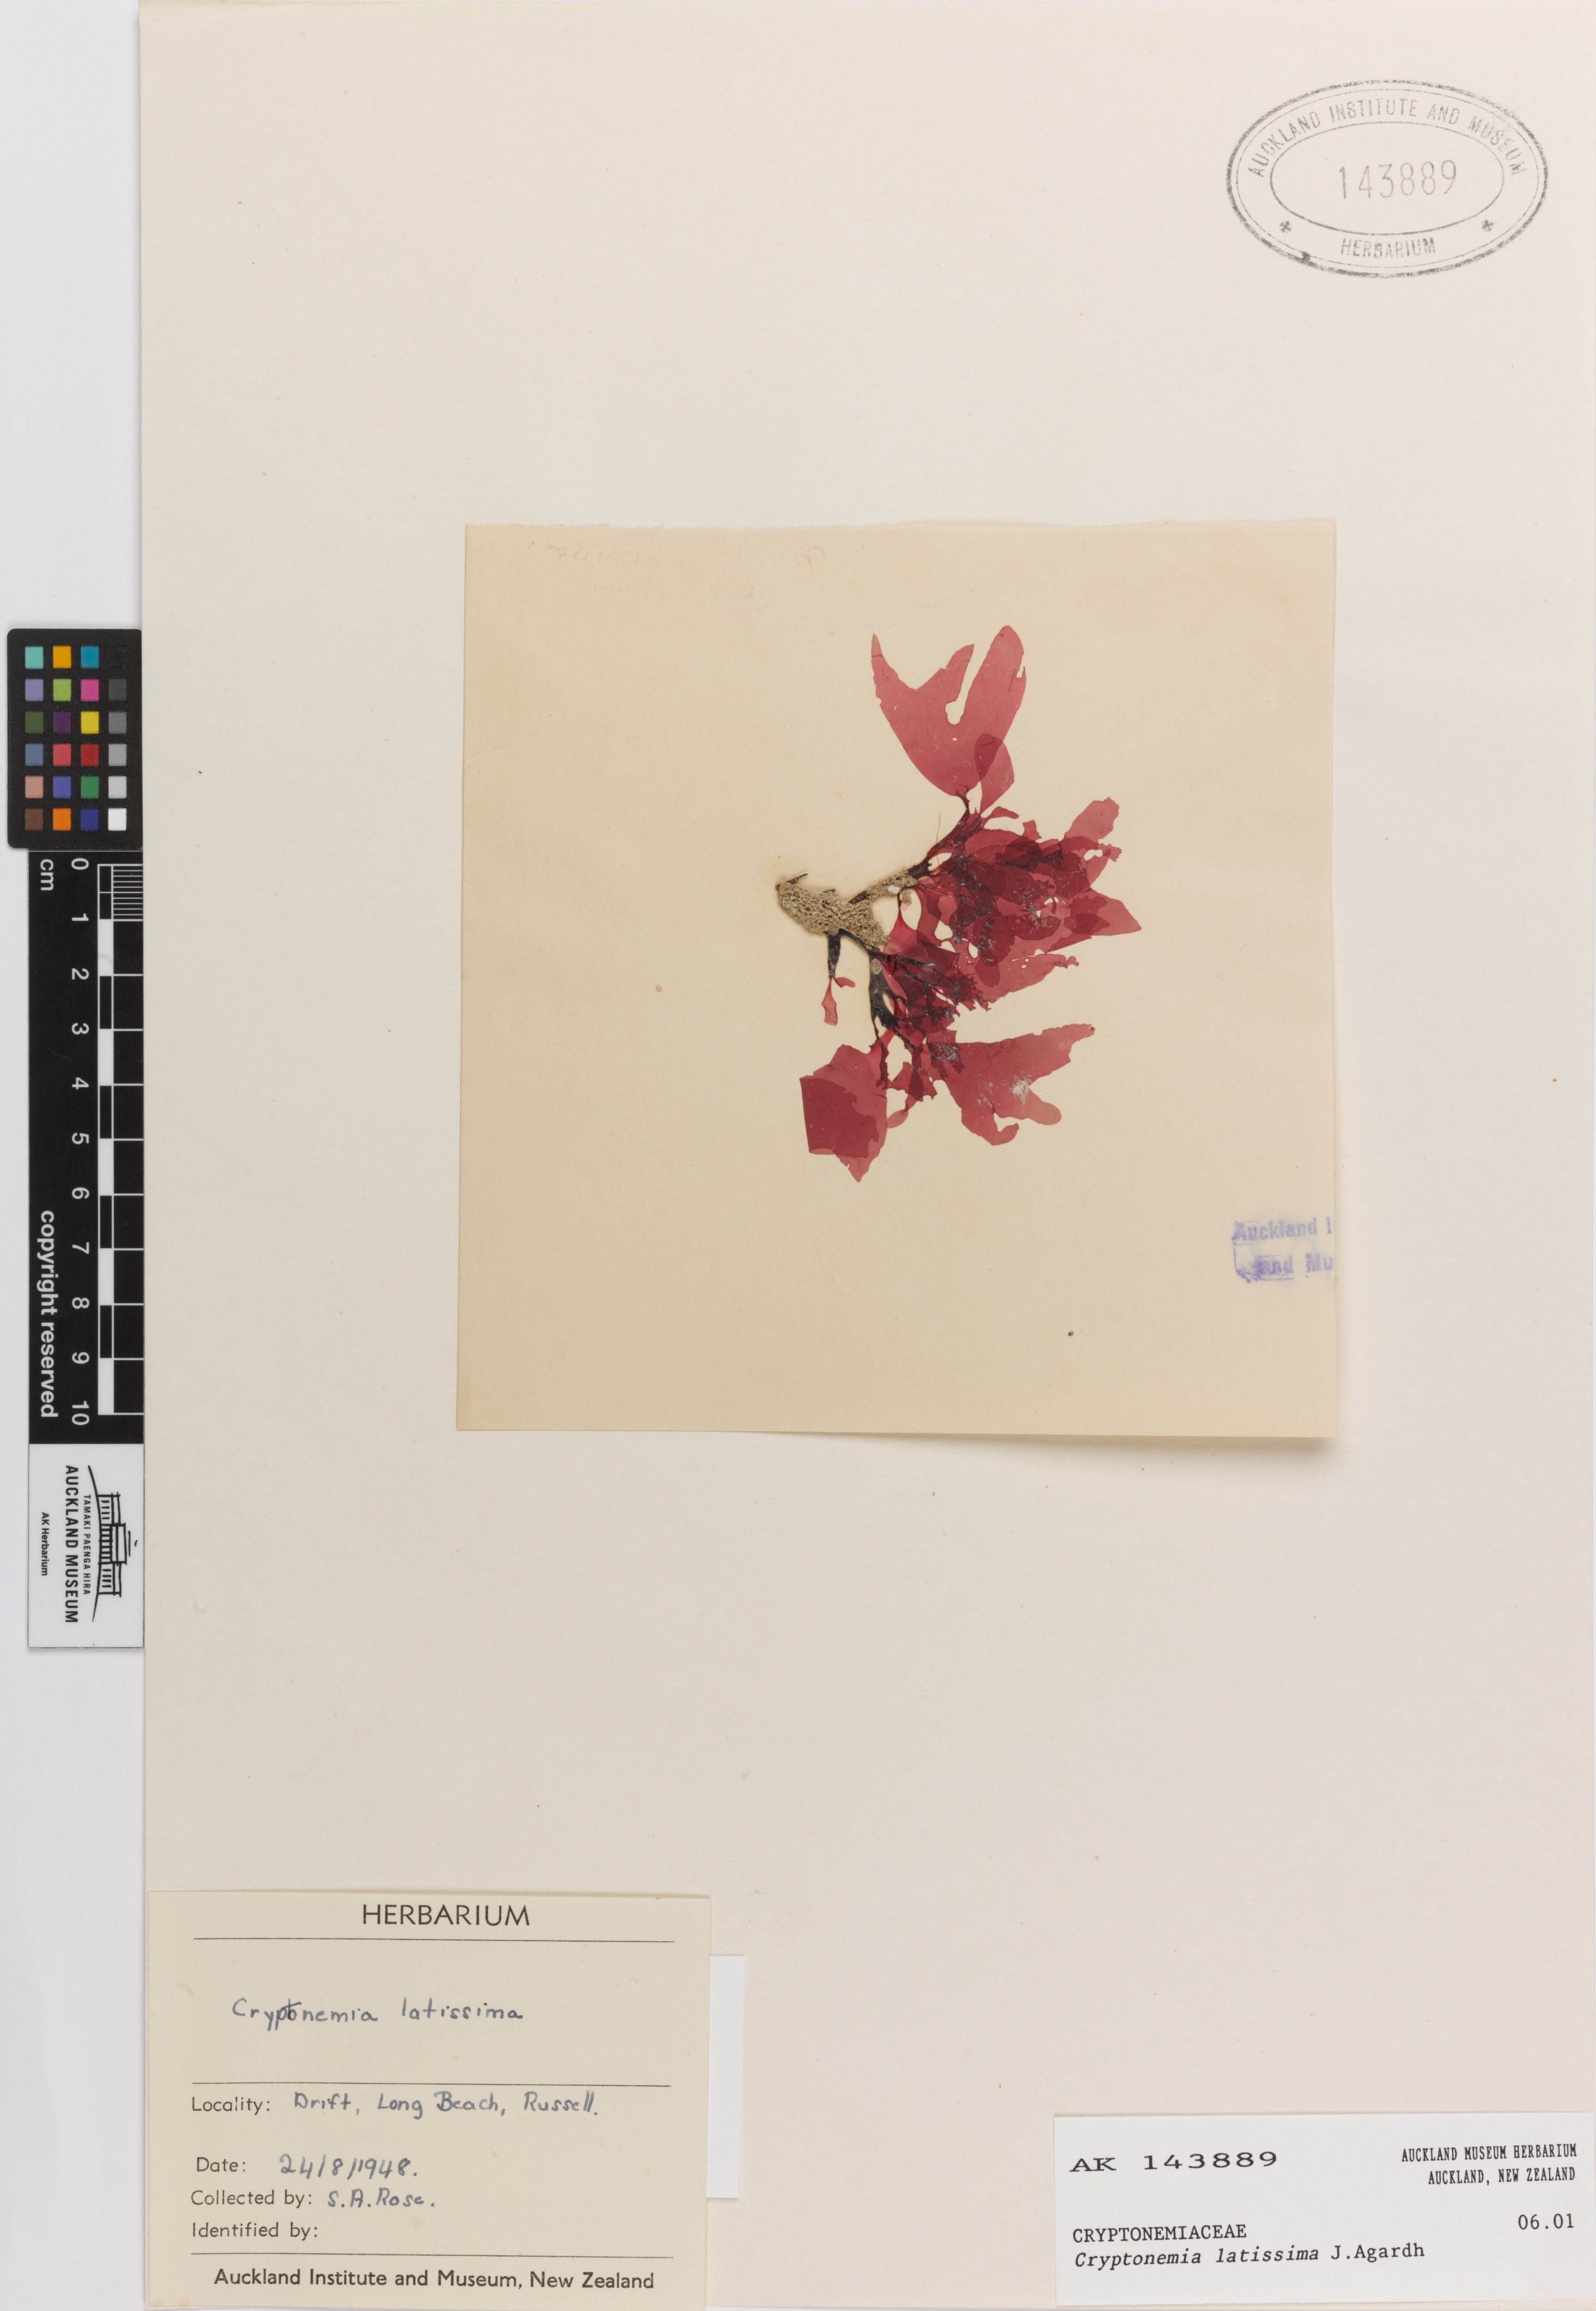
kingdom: Plantae
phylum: Rhodophyta
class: Florideophyceae
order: Halymeniales
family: Halymeniaceae
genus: Cryptonemia
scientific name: Cryptonemia latissima
